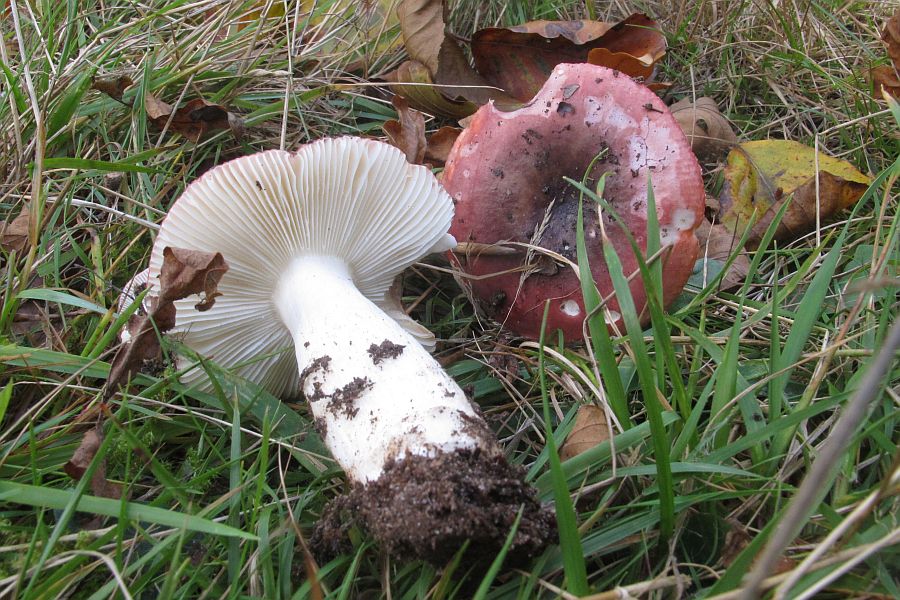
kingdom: Fungi
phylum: Basidiomycota
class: Agaricomycetes
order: Russulales
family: Russulaceae
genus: Russula
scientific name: Russula atropurpurea
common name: purpurbroget skørhat
